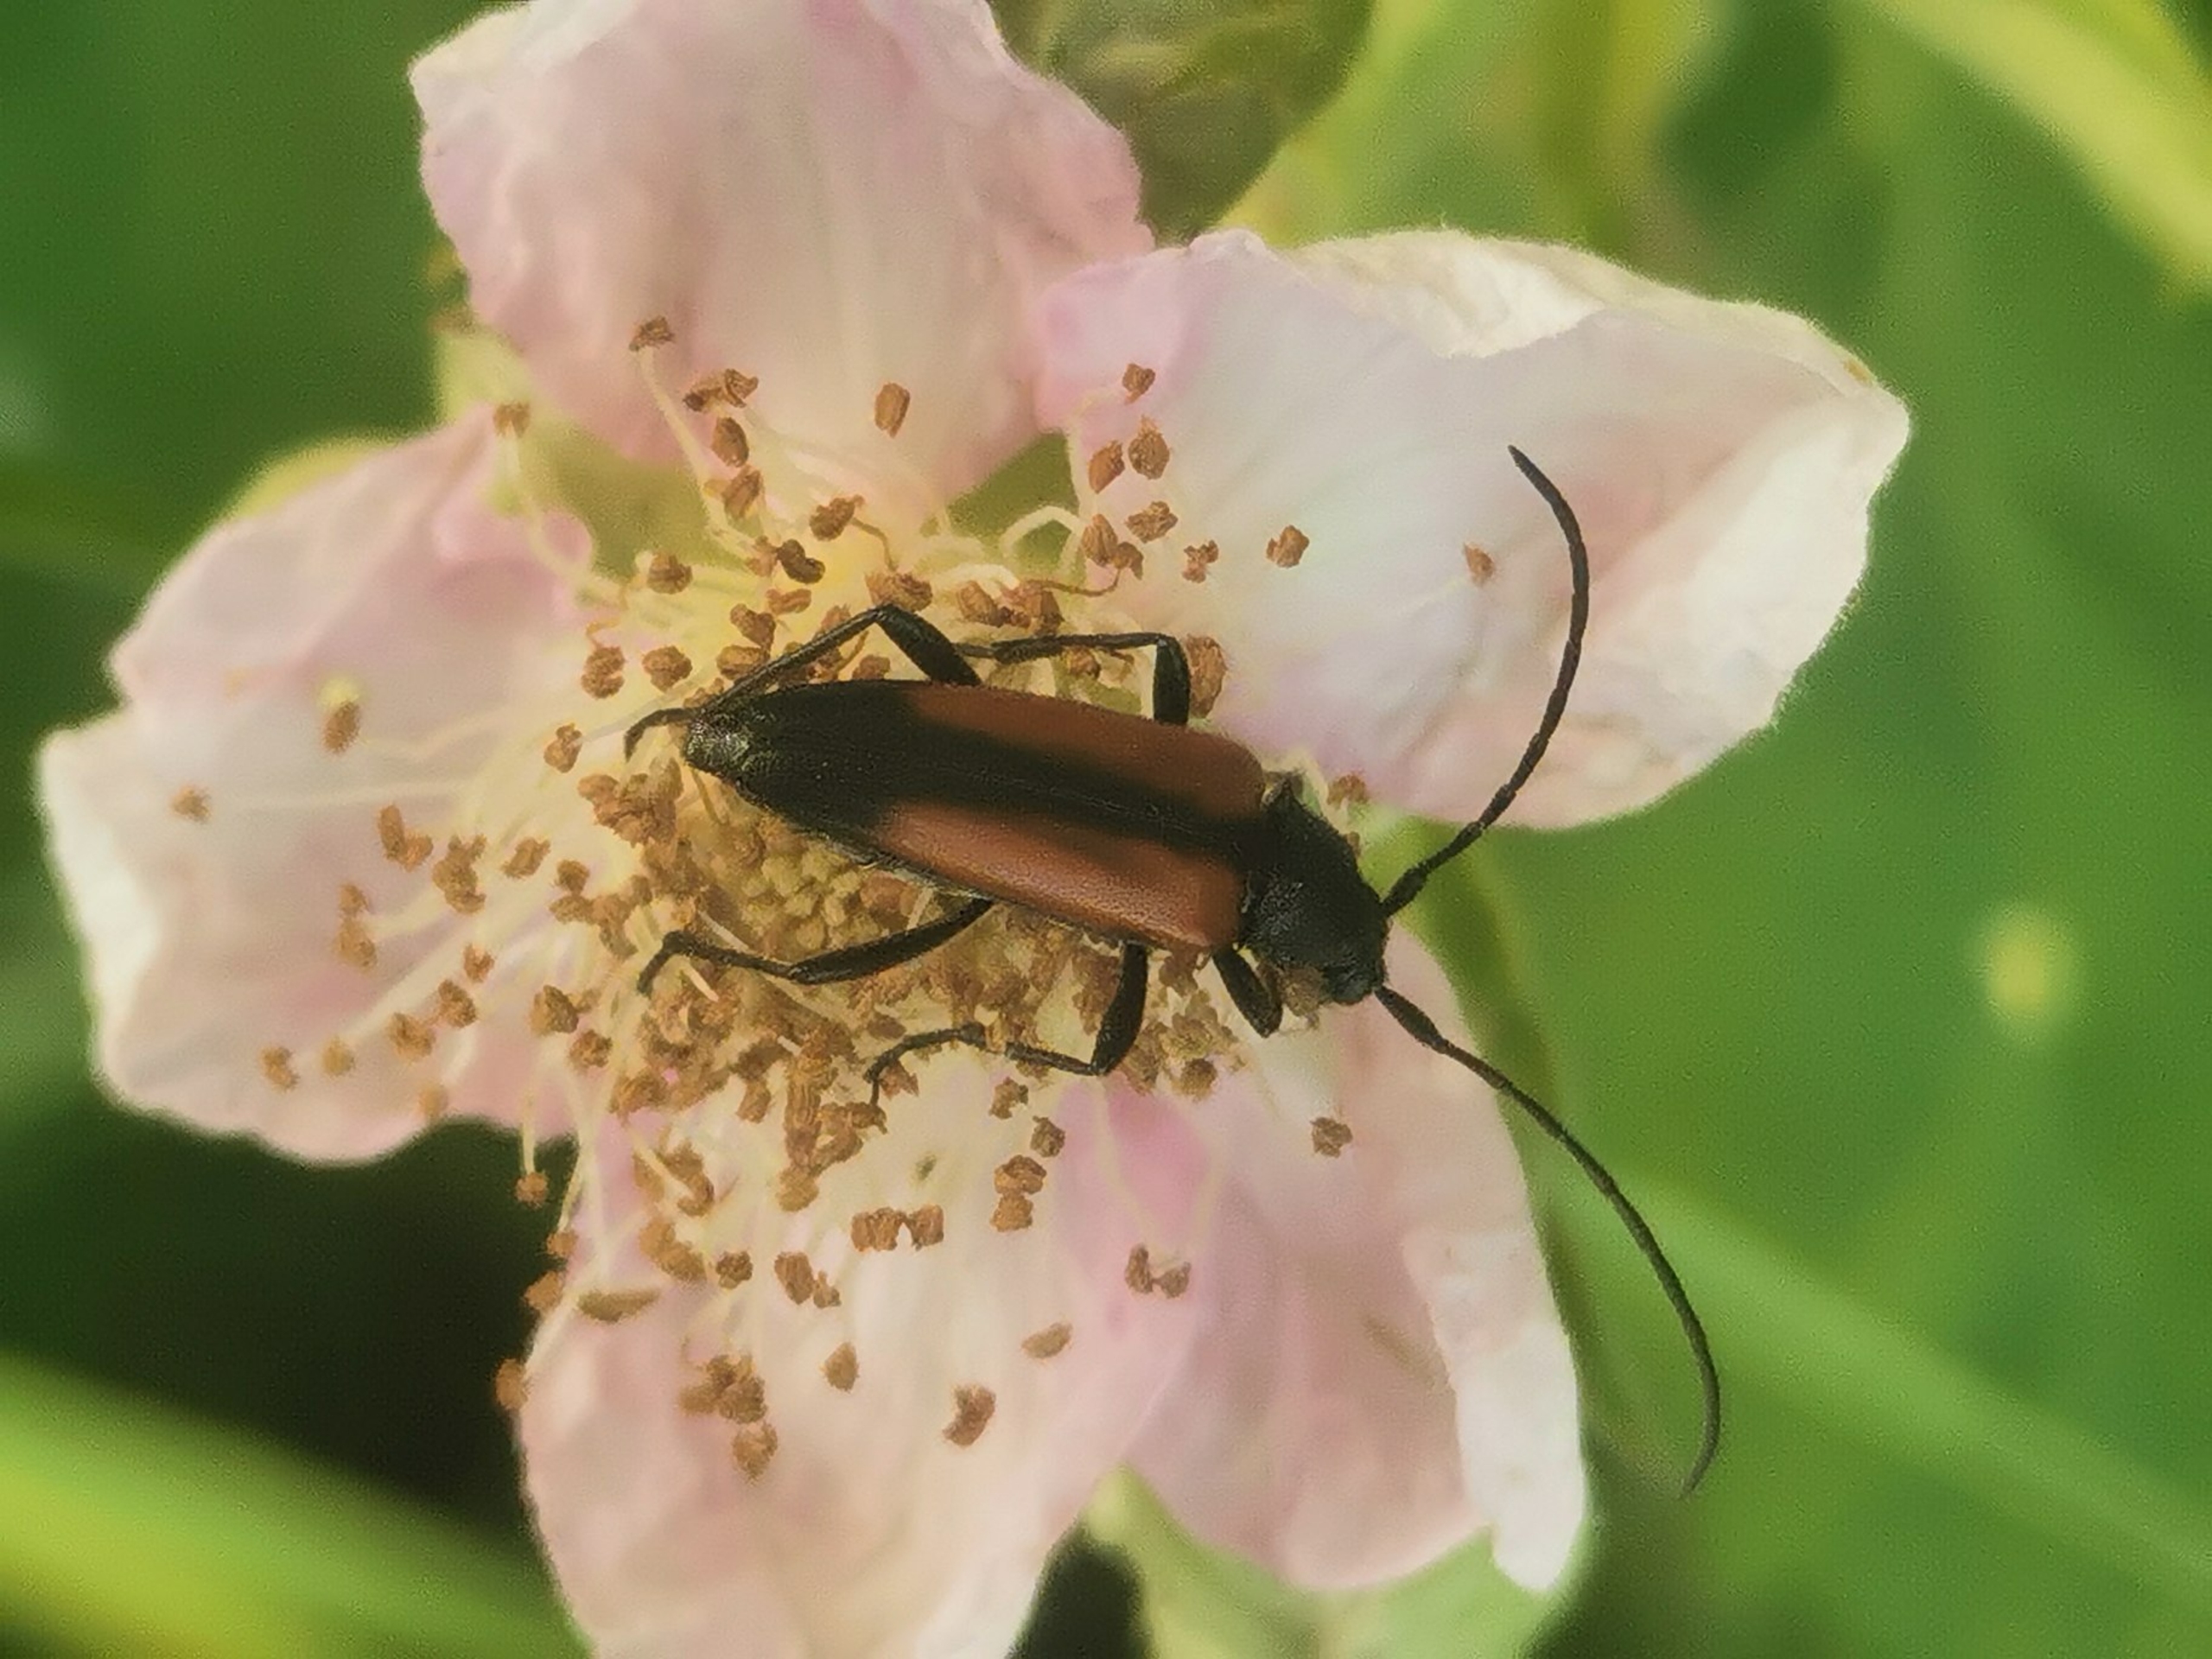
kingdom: Animalia
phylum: Arthropoda
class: Insecta
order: Coleoptera
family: Cerambycidae
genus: Stenurella
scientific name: Stenurella melanura
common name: Sortsømmet blomsterbuk
